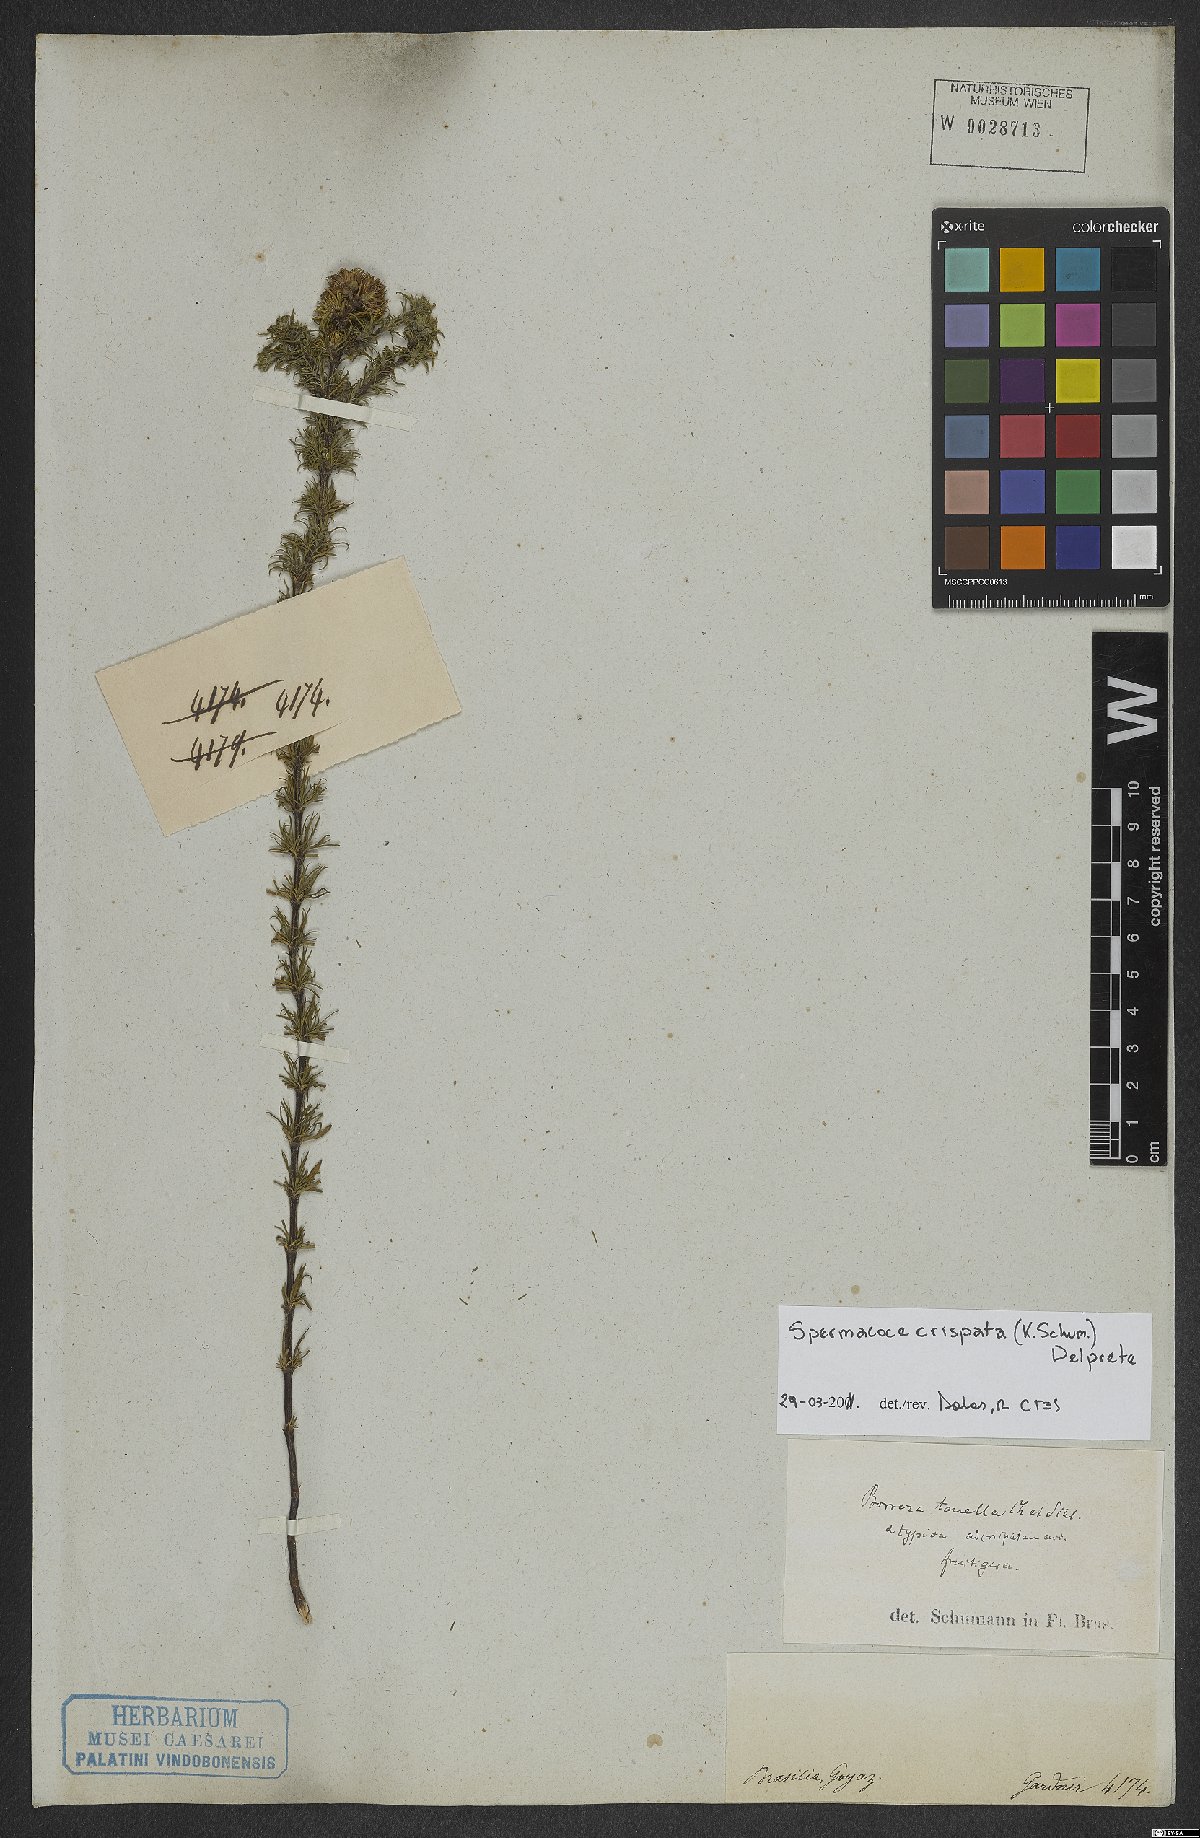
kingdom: Plantae
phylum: Tracheophyta
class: Magnoliopsida
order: Gentianales
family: Rubiaceae
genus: Spermacoce
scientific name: Spermacoce crispata
